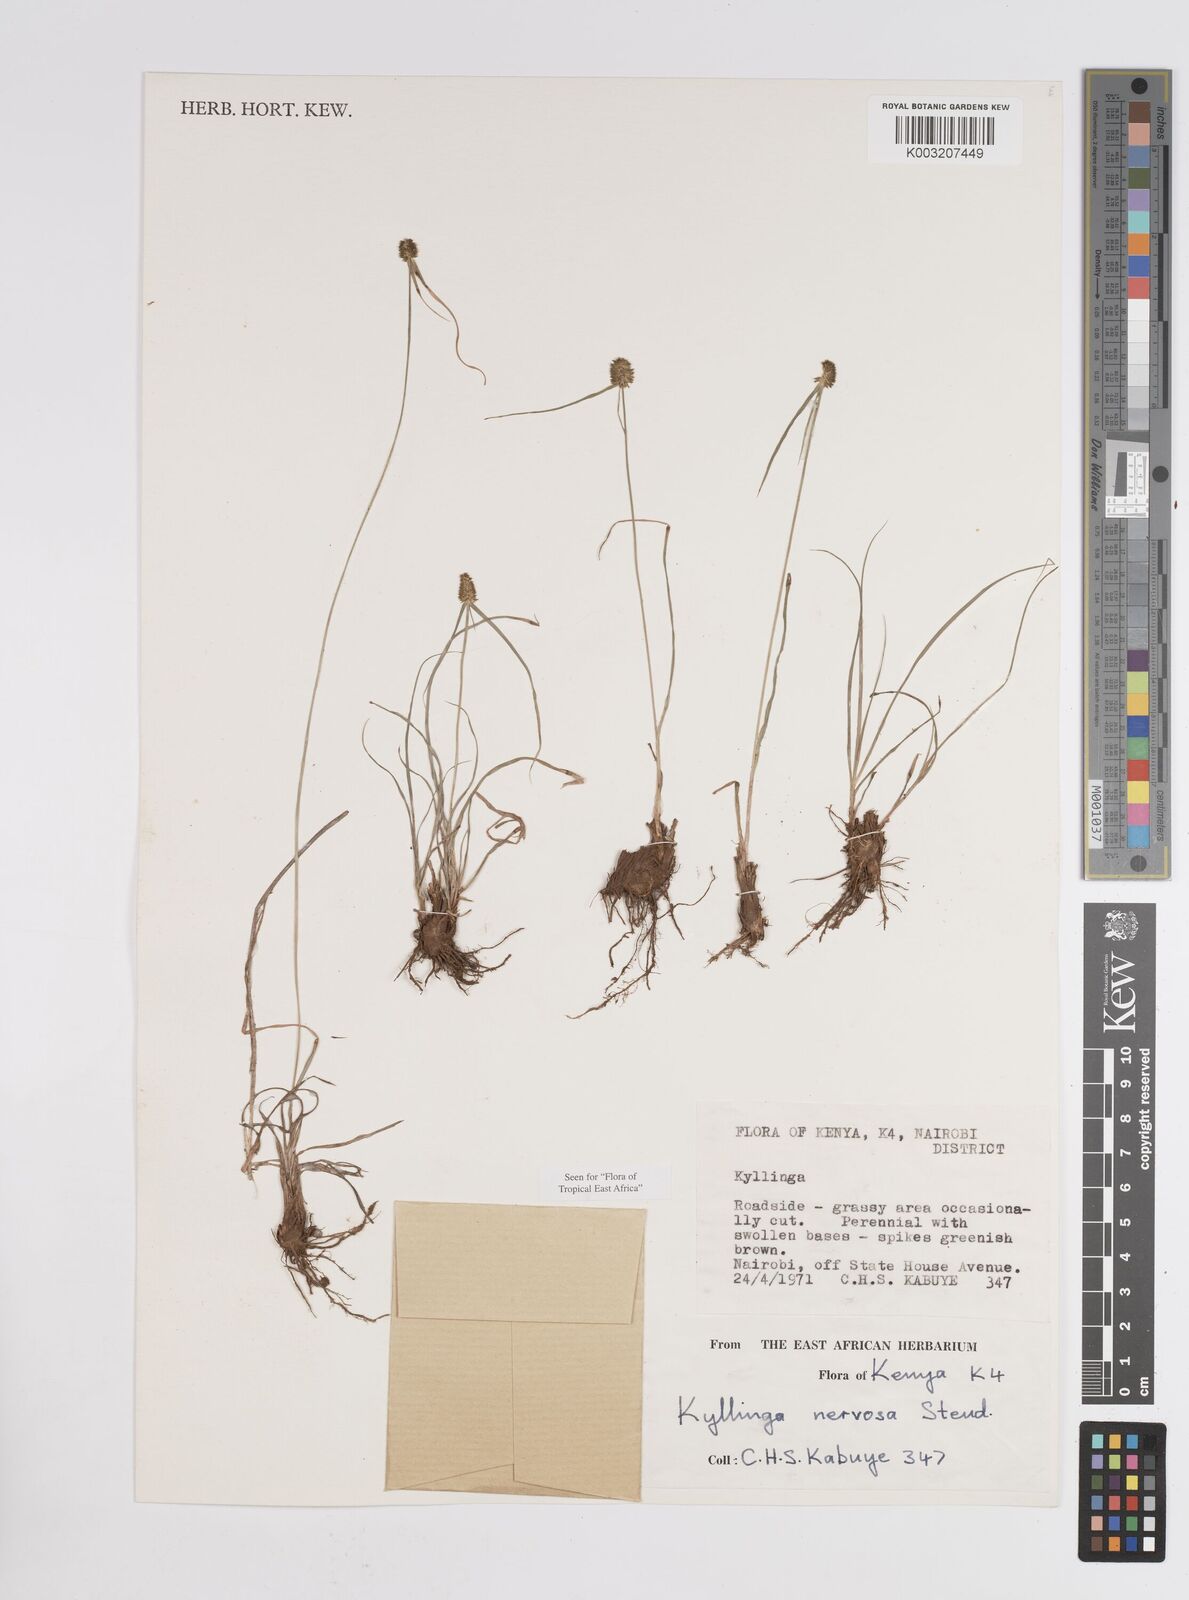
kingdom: Plantae
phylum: Tracheophyta
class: Liliopsida
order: Poales
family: Cyperaceae
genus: Cyperus
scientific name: Cyperus
